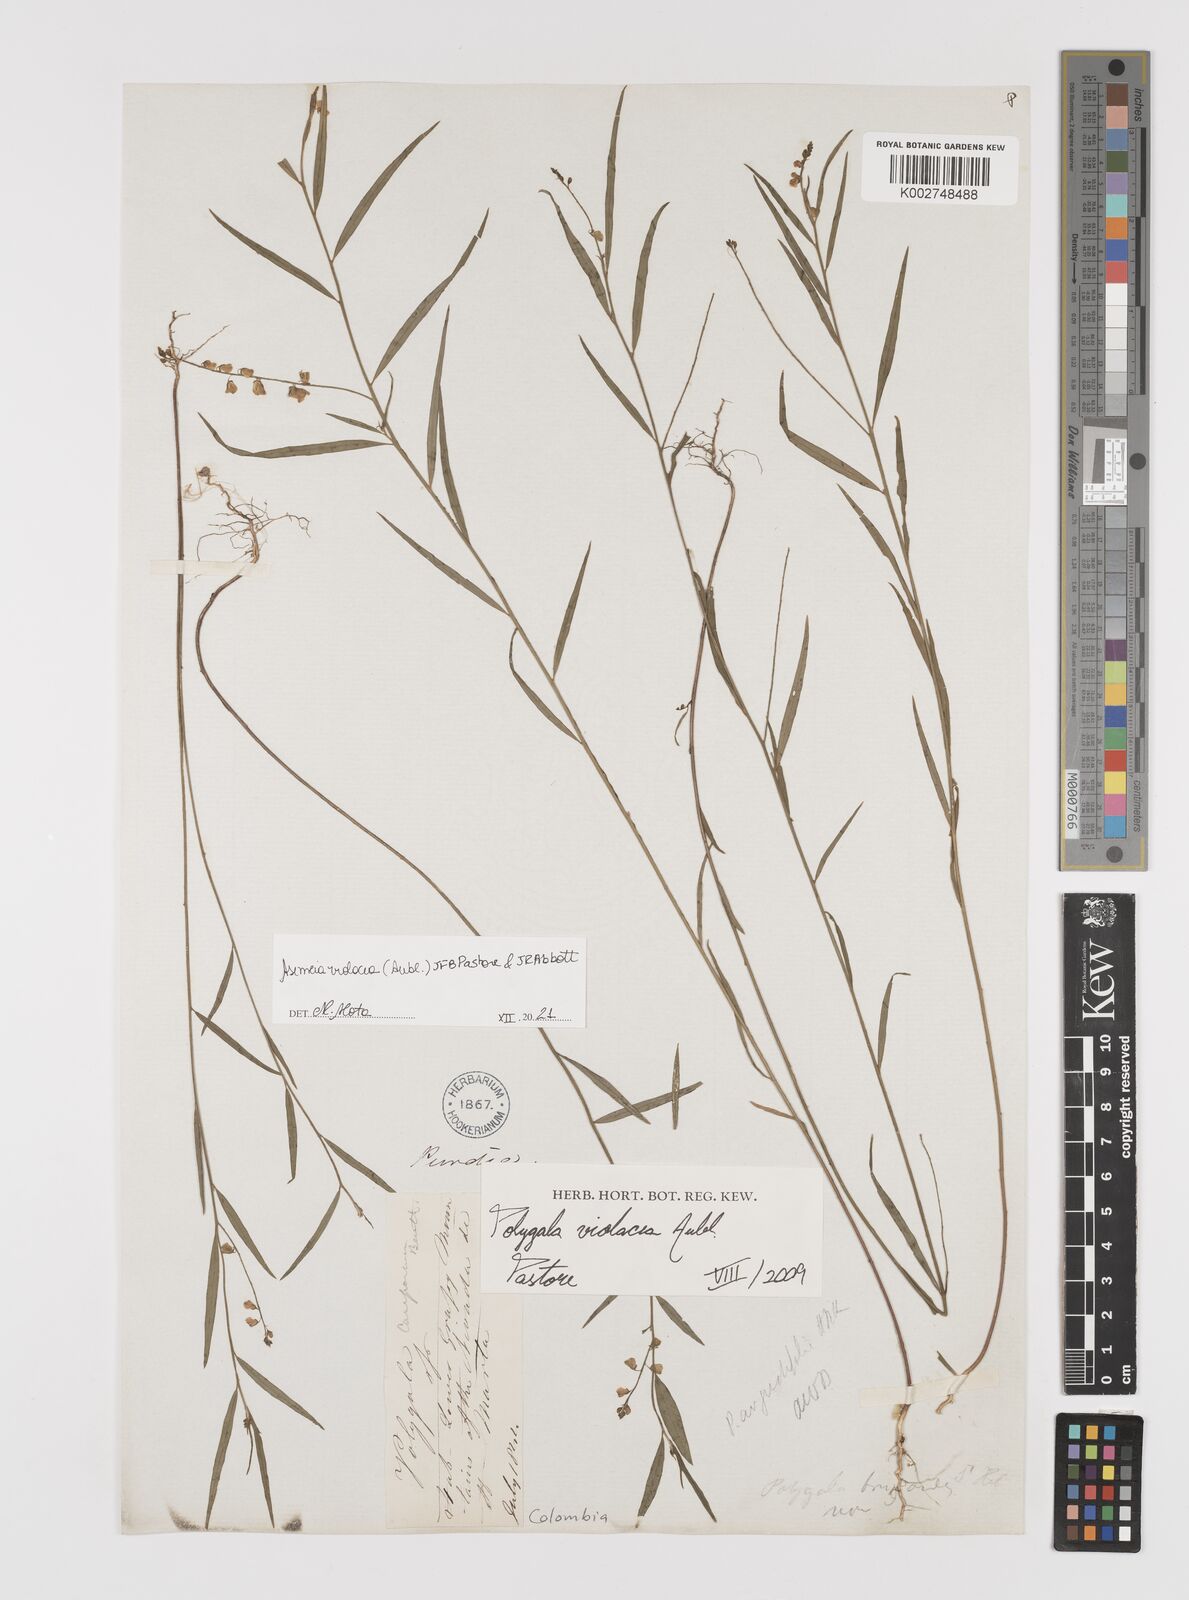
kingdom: Plantae
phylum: Tracheophyta
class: Magnoliopsida
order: Fabales
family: Polygalaceae
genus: Asemeia
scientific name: Asemeia violacea
